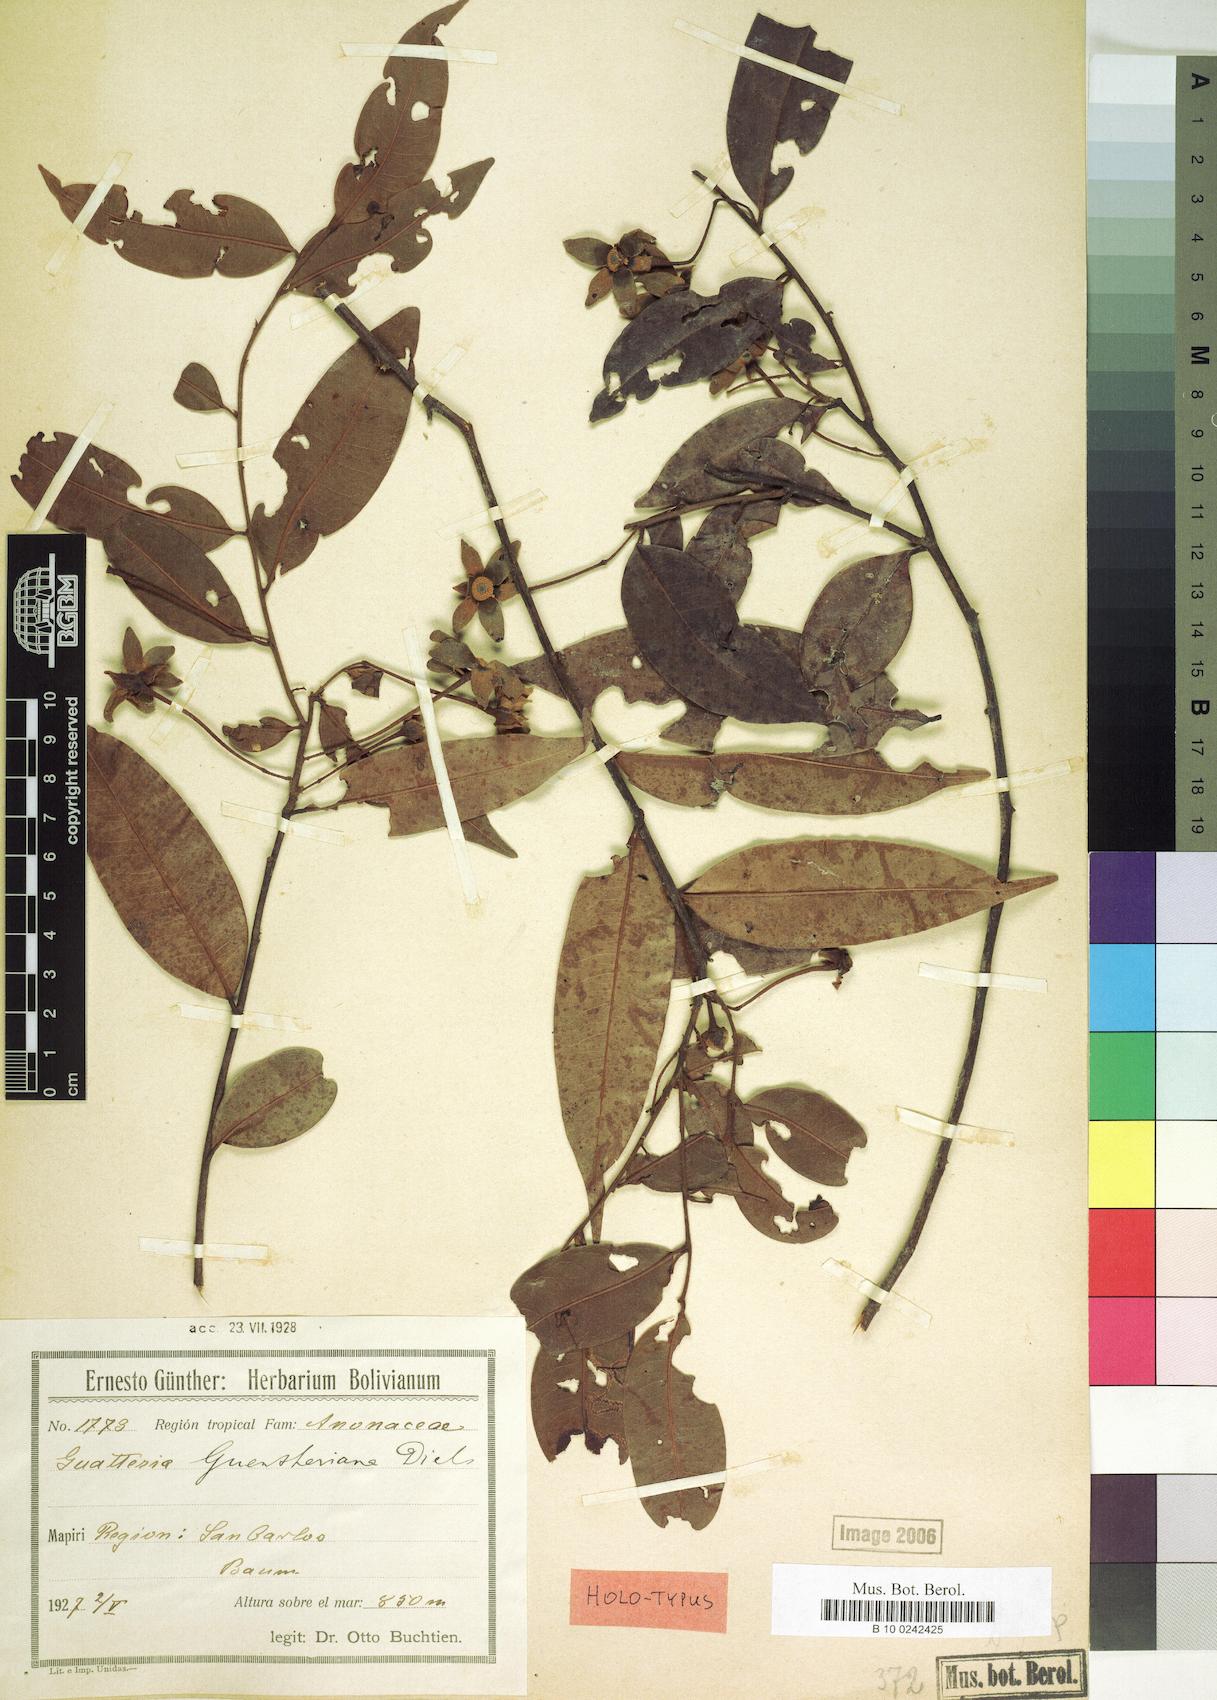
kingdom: Plantae
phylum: Tracheophyta
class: Magnoliopsida
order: Magnoliales
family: Annonaceae
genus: Guatteria
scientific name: Guatteria hirsuta
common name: Laurel
